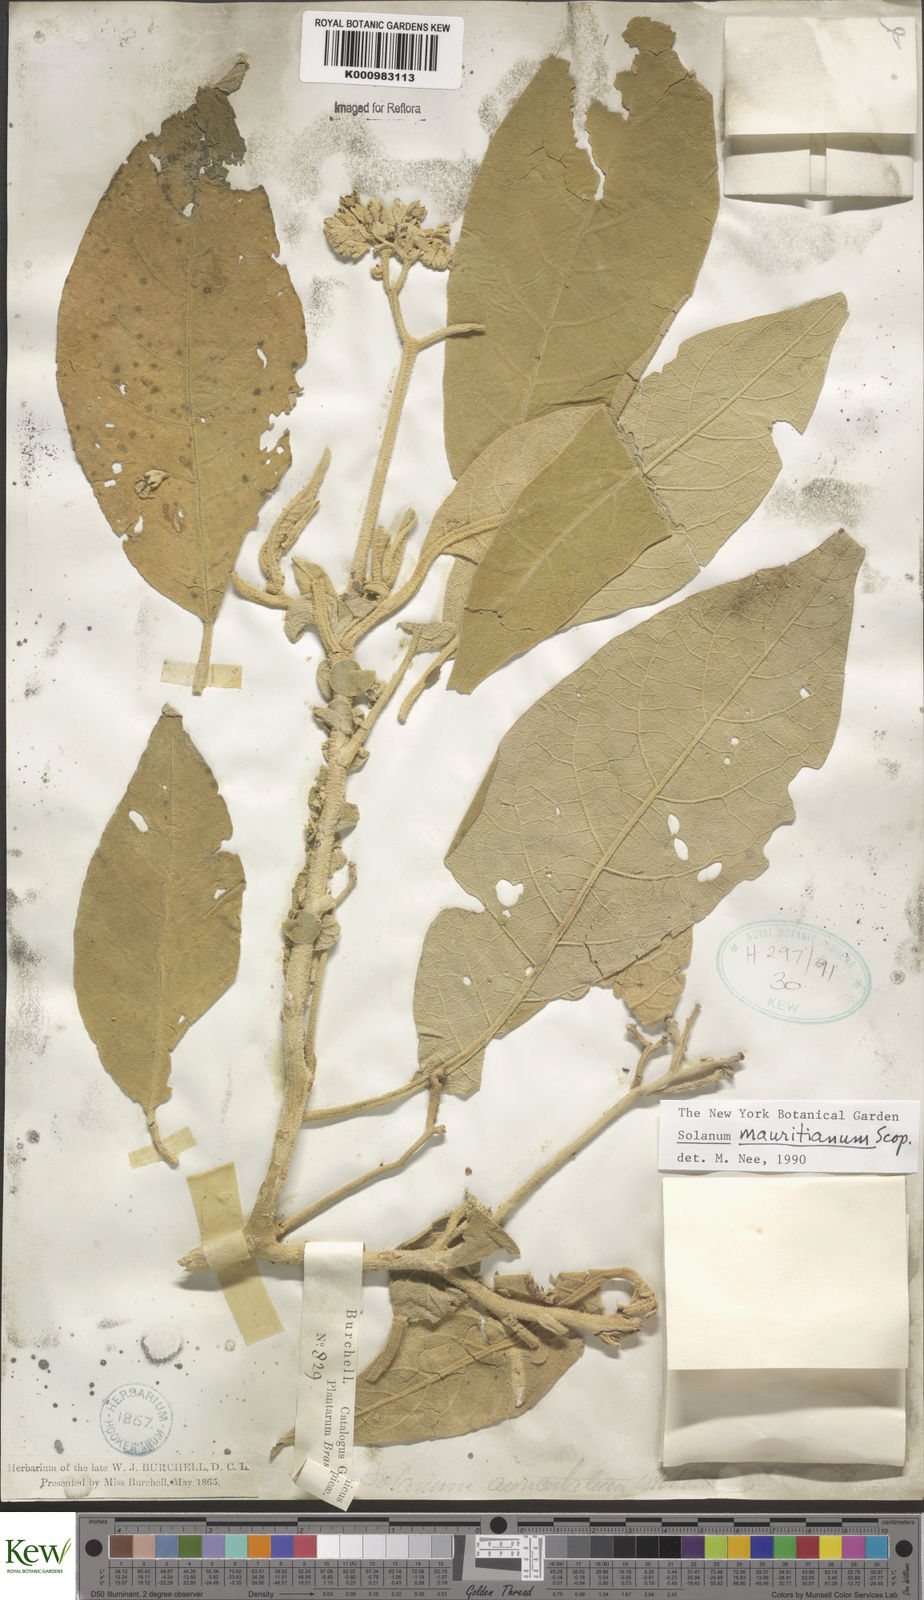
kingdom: Plantae
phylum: Tracheophyta
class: Magnoliopsida
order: Solanales
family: Solanaceae
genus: Solanum
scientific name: Solanum mauritianum
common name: Earleaf nightshade
